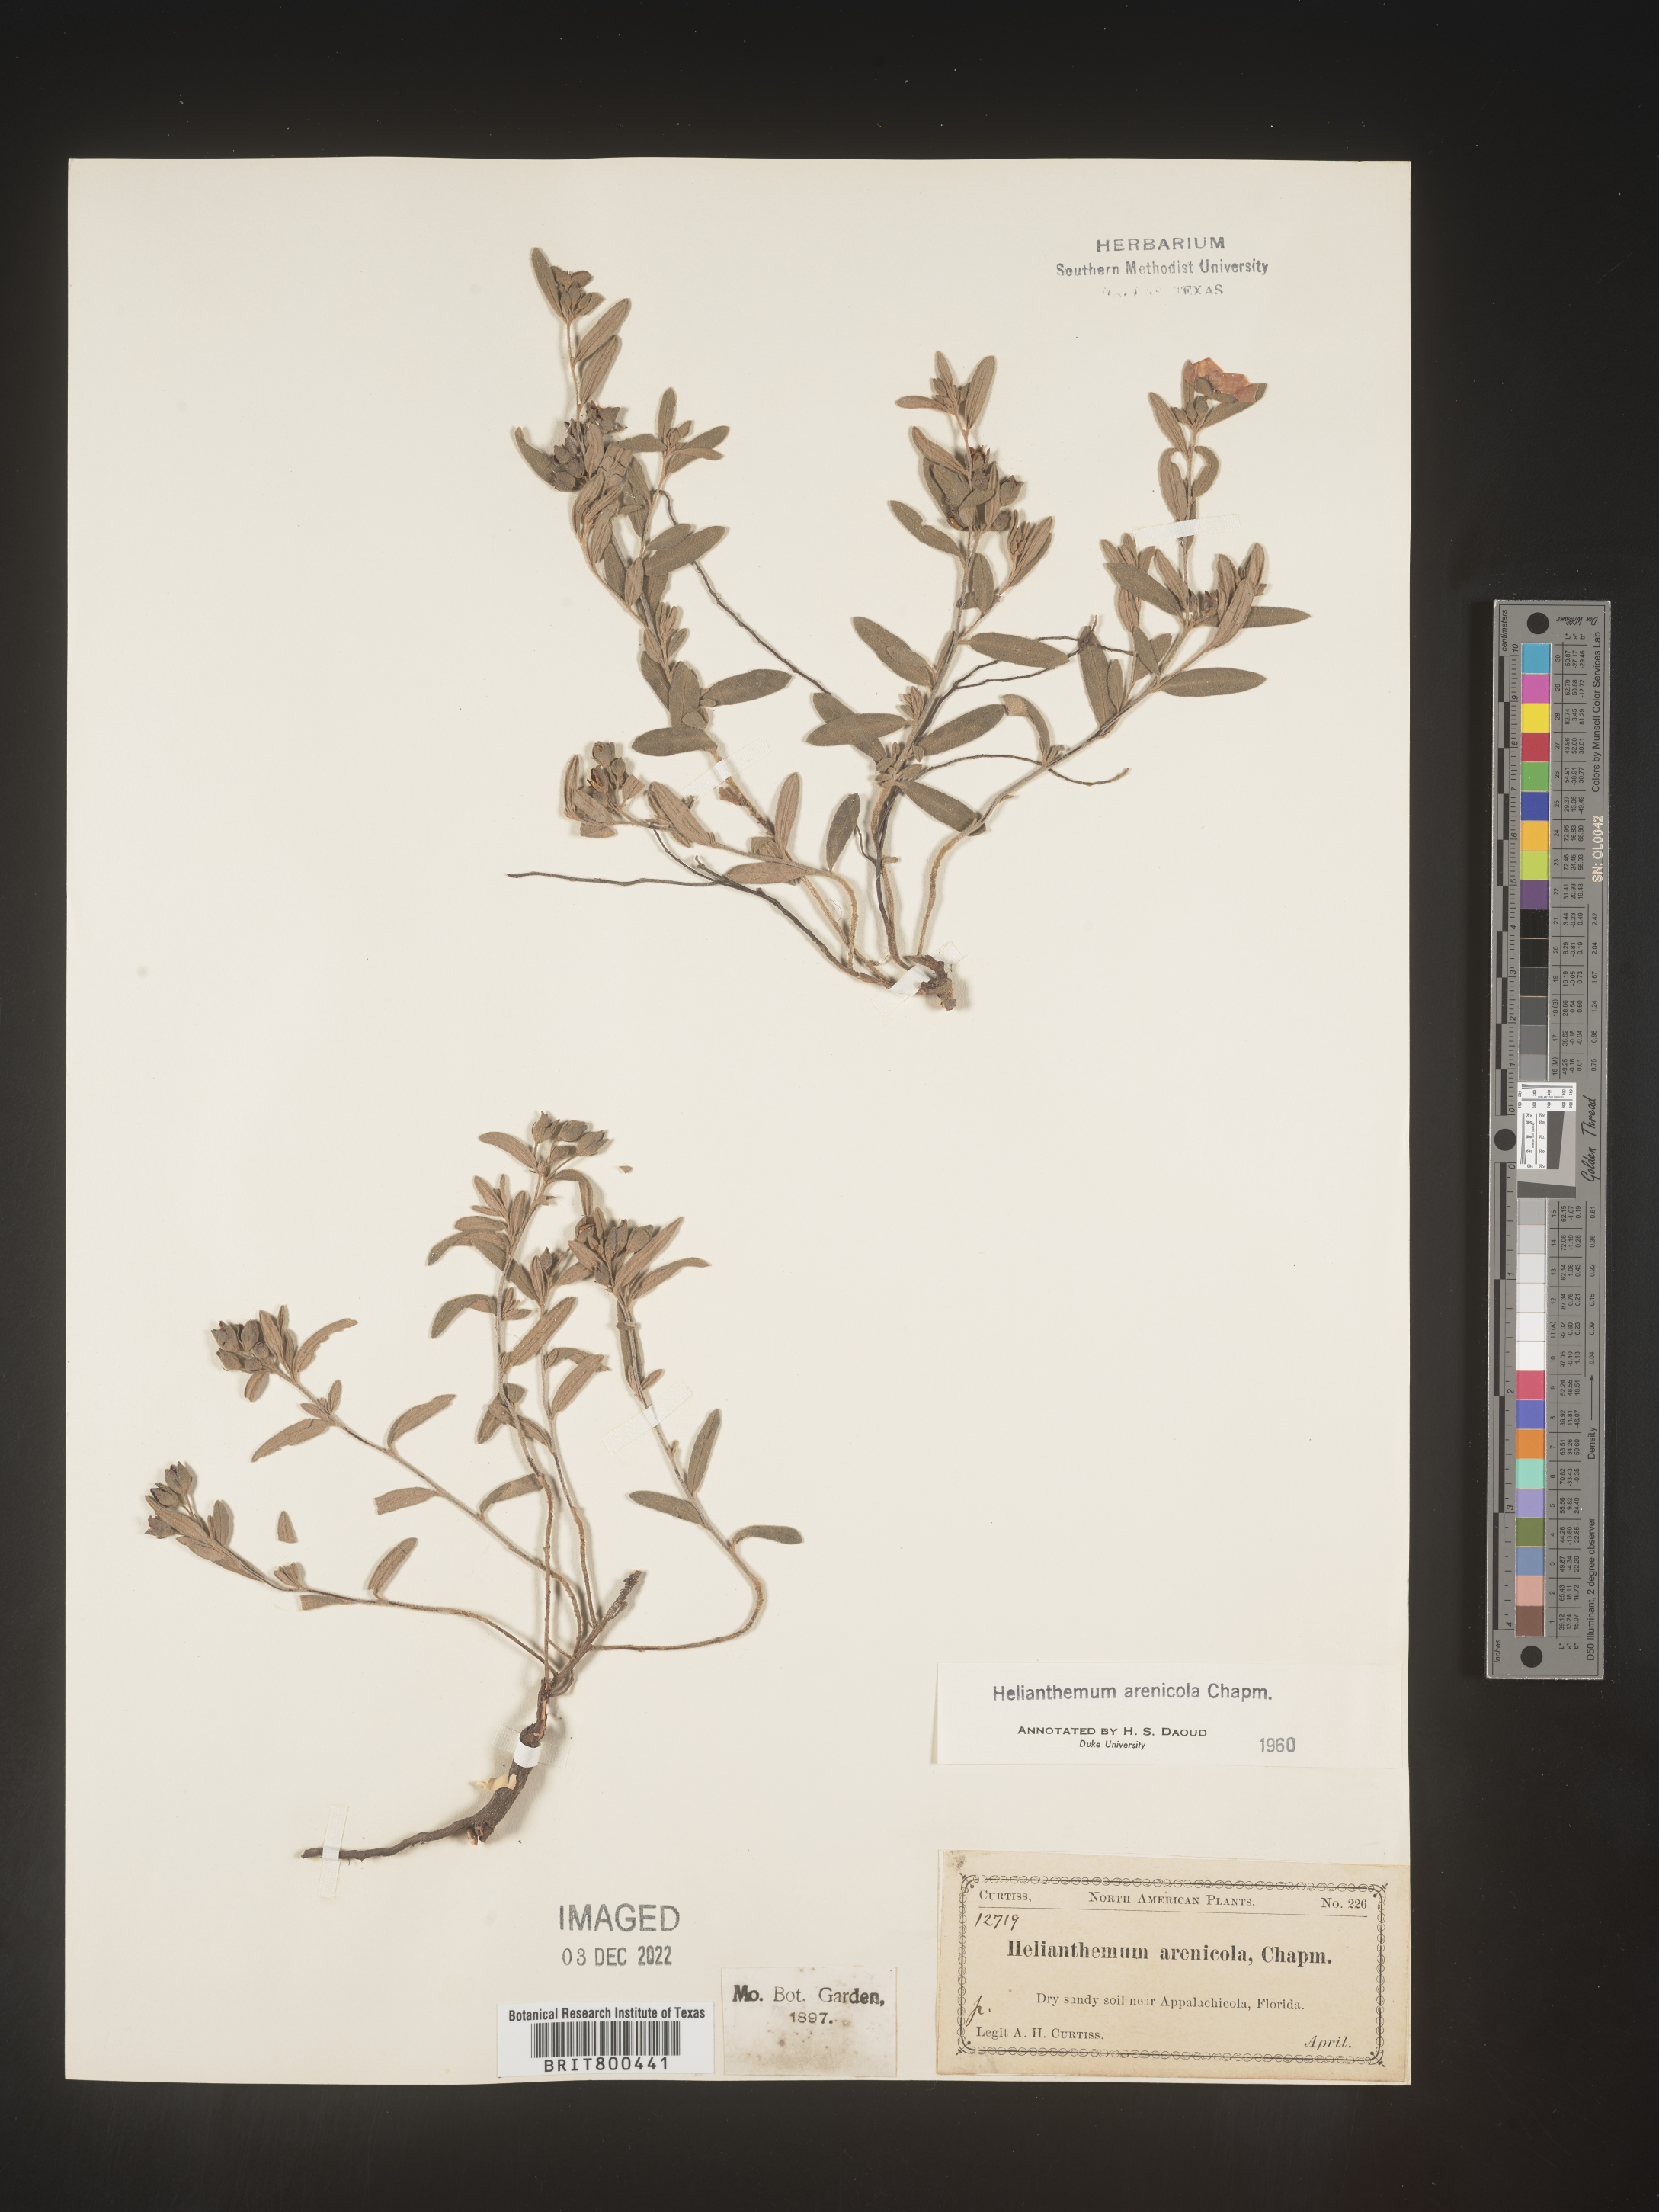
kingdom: Plantae
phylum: Tracheophyta
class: Magnoliopsida
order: Malvales
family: Cistaceae
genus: Helianthemum
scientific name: Helianthemum
